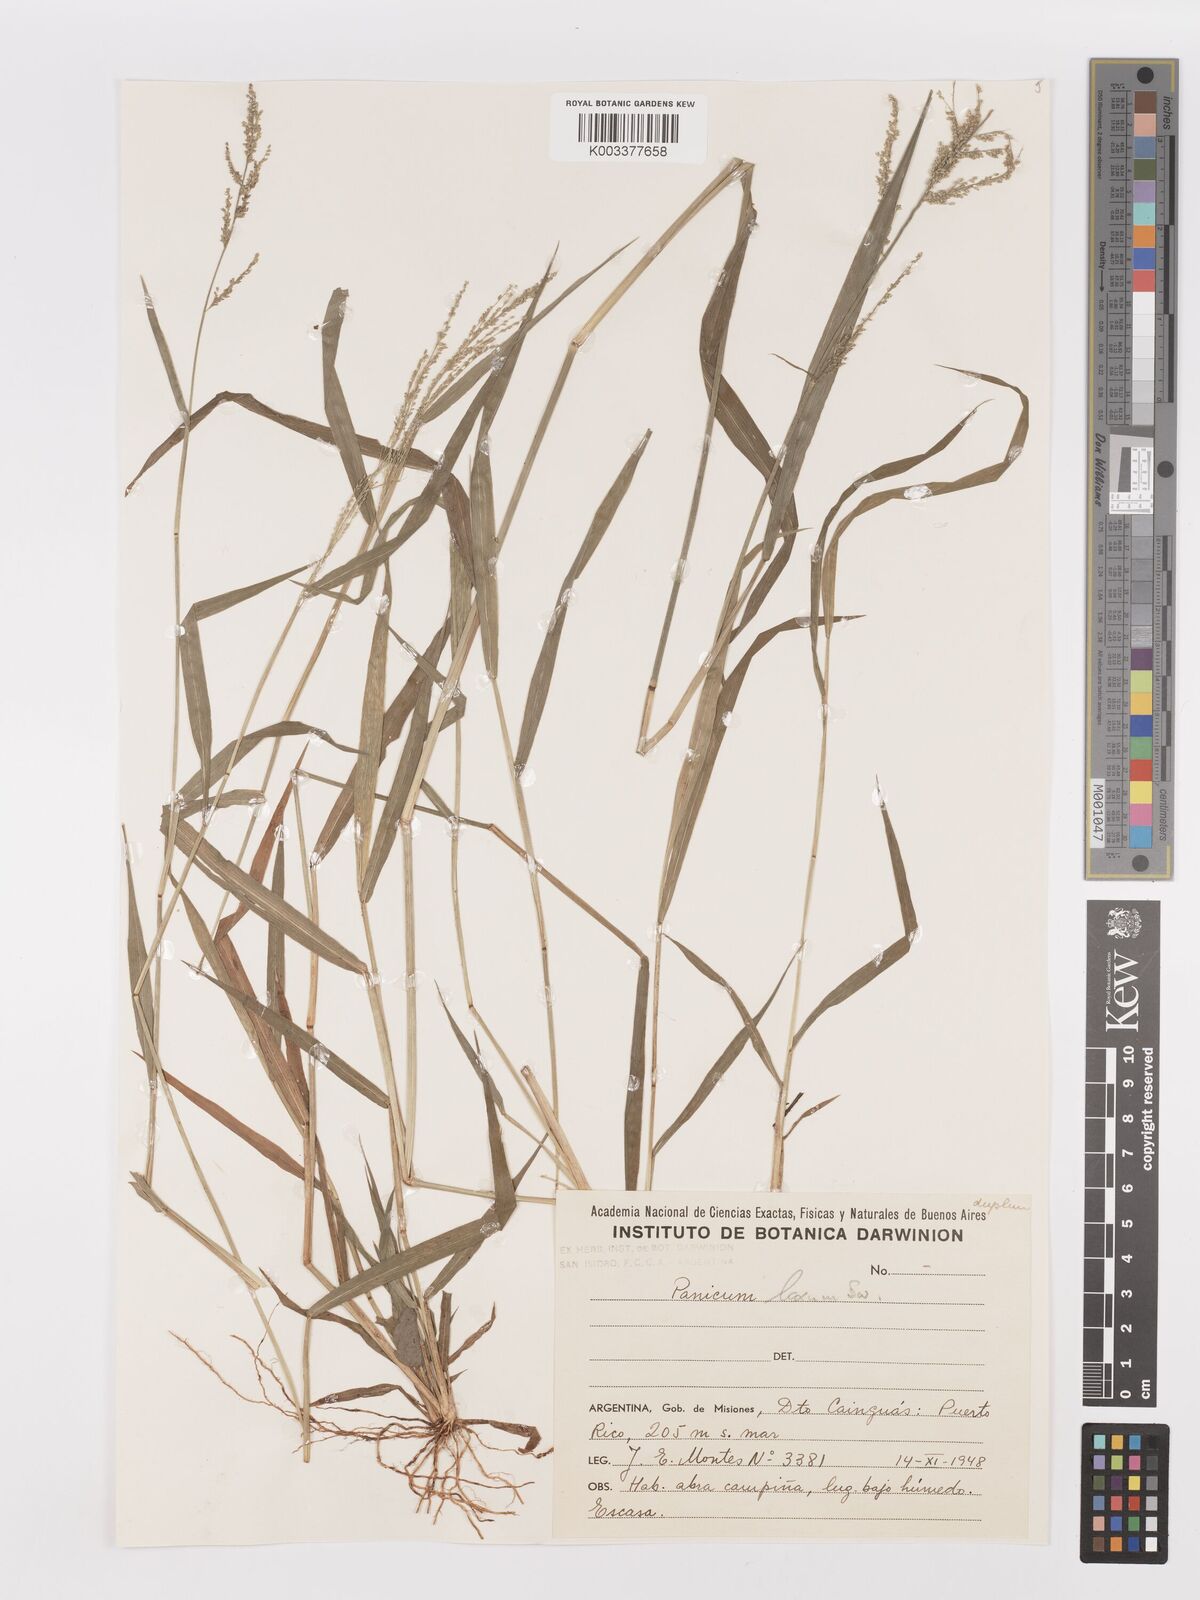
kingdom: Plantae
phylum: Tracheophyta
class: Liliopsida
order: Poales
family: Poaceae
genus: Steinchisma
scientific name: Steinchisma laxum
